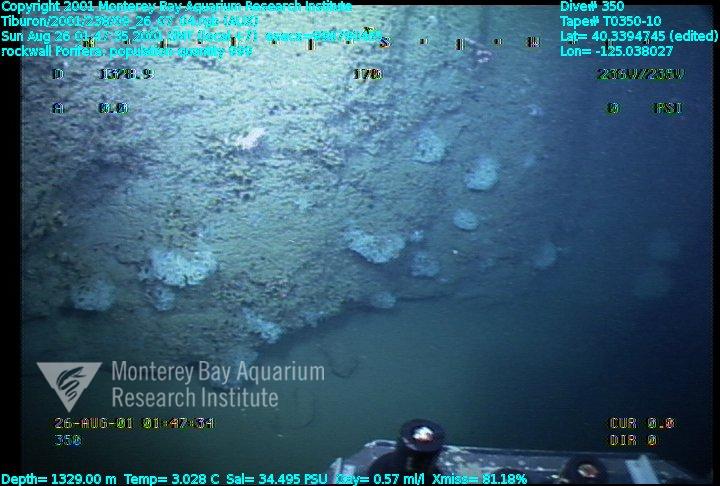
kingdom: Animalia
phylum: Porifera
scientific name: Porifera
